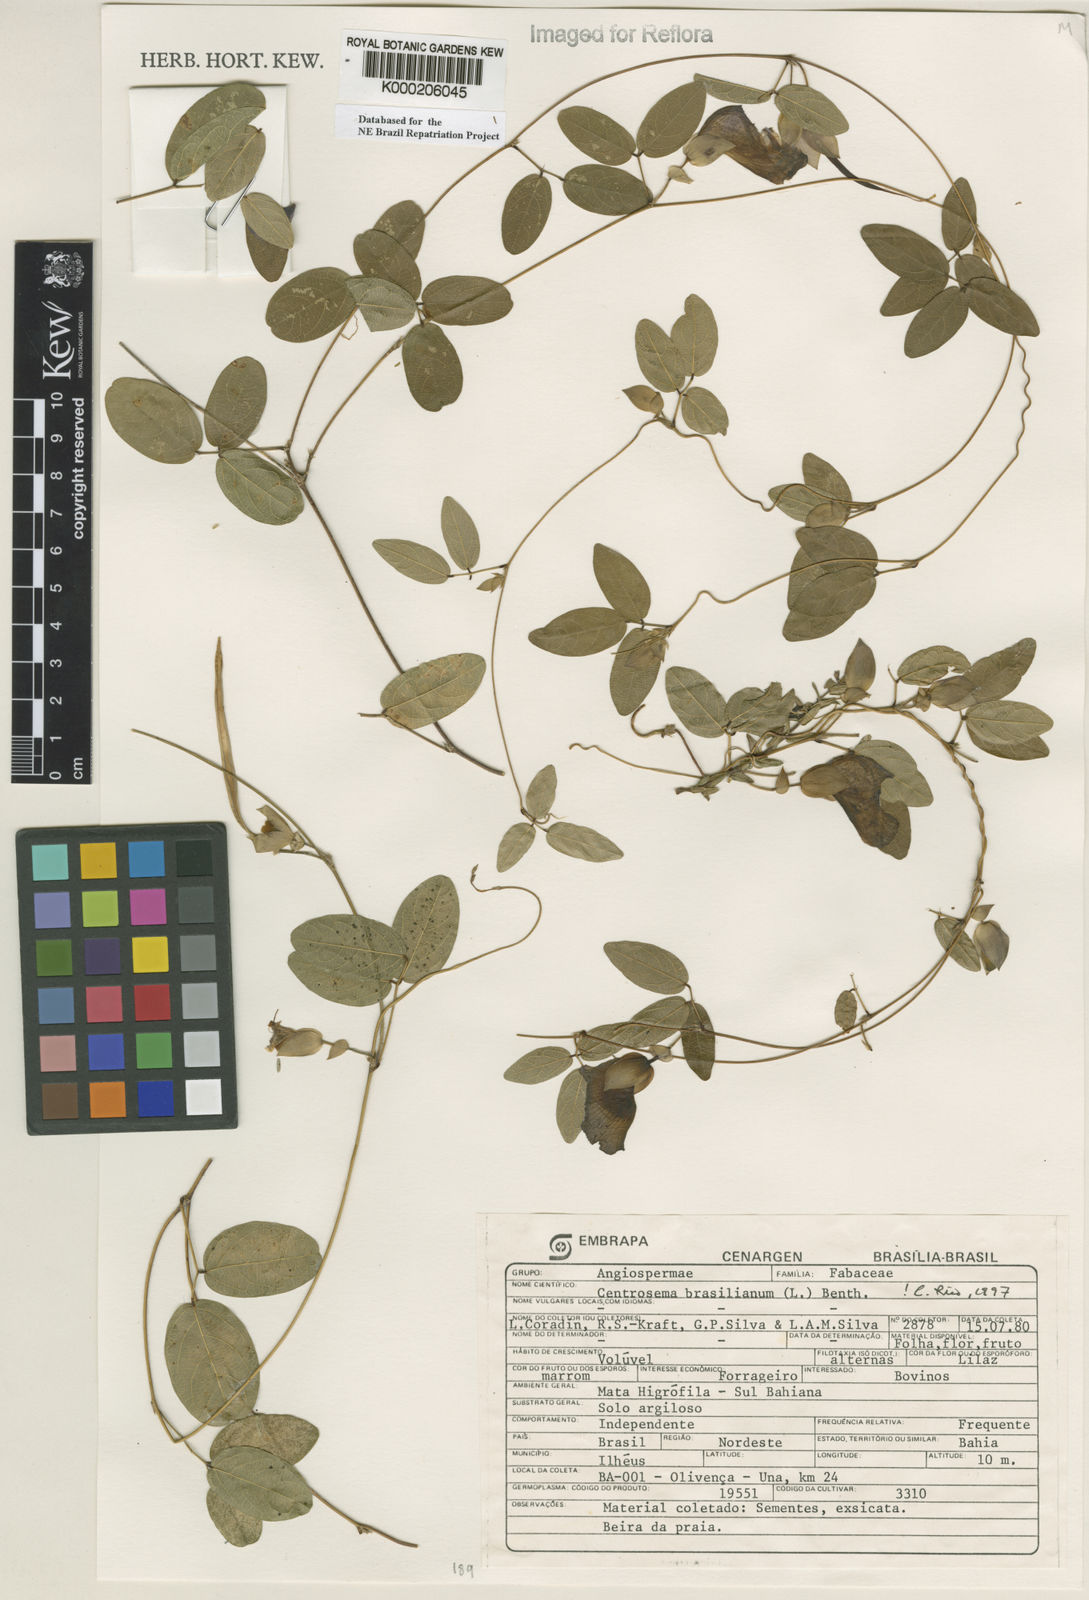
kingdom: Plantae
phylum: Tracheophyta
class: Magnoliopsida
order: Fabales
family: Fabaceae
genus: Centrosema
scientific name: Centrosema brasilianum
